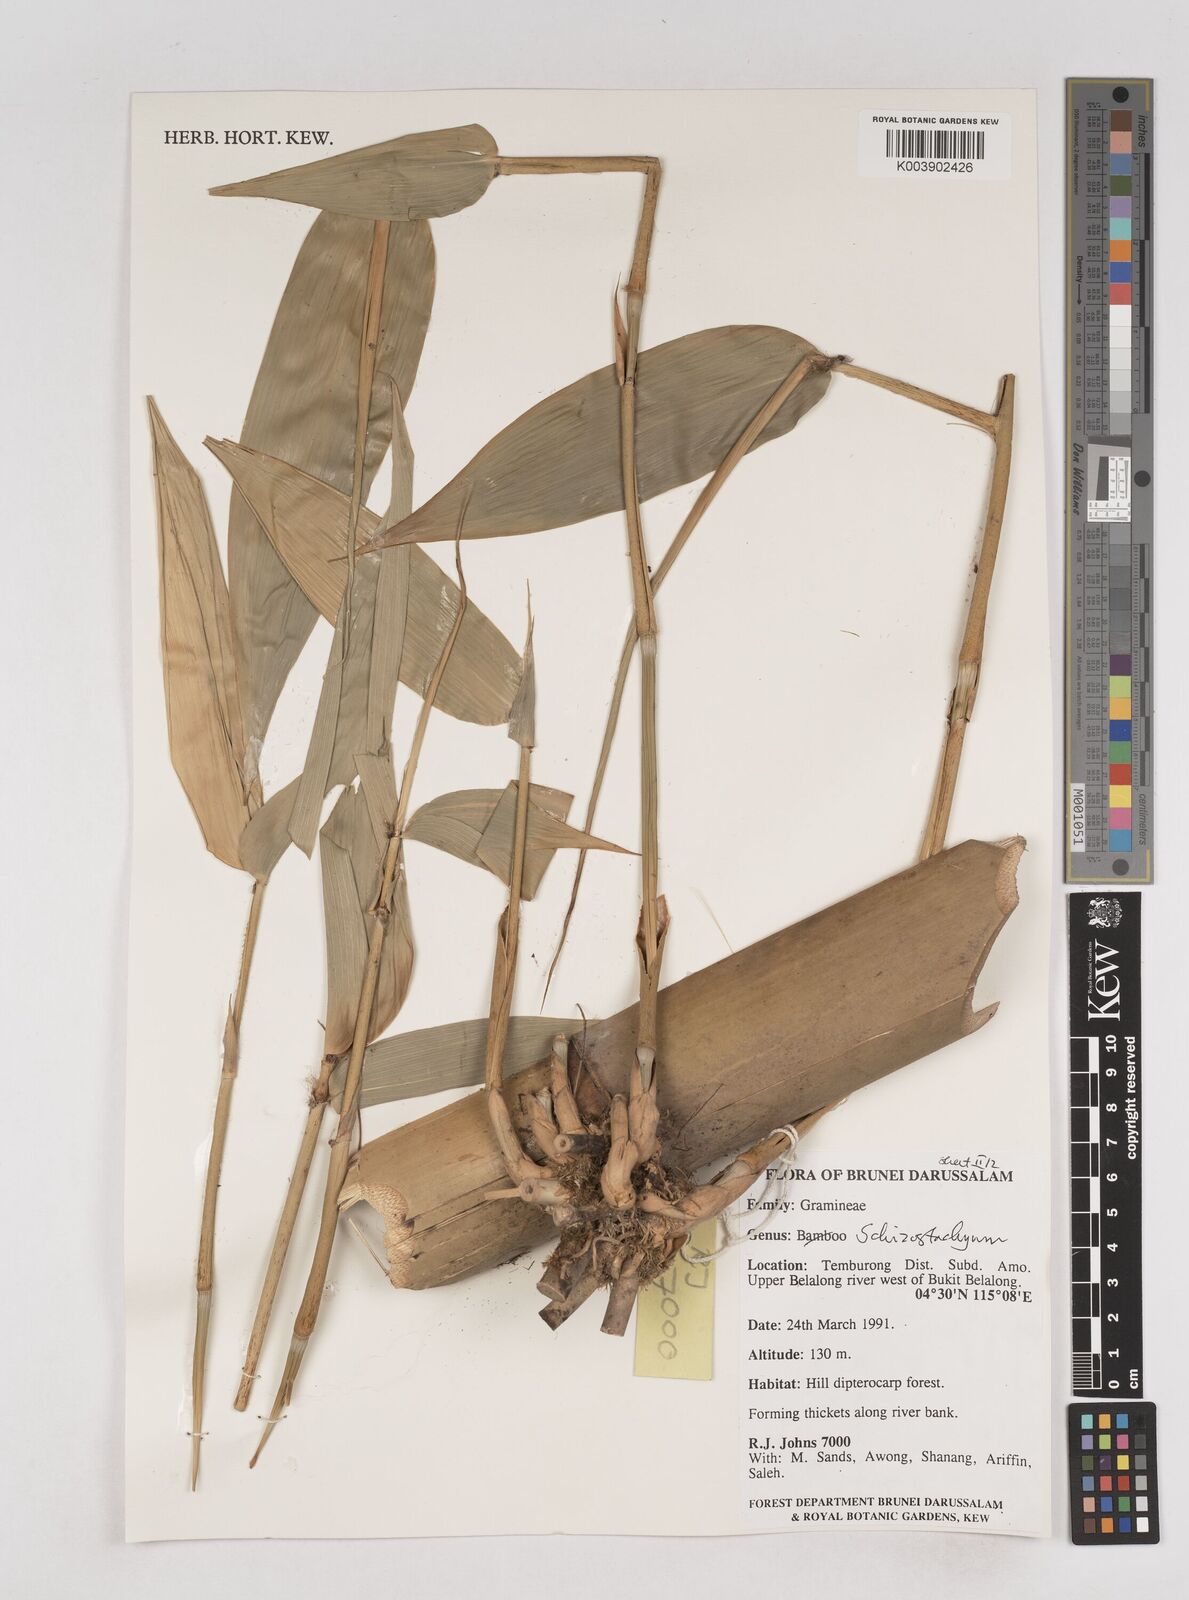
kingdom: Plantae
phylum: Tracheophyta
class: Liliopsida
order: Poales
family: Poaceae
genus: Schizostachyum
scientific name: Schizostachyum
